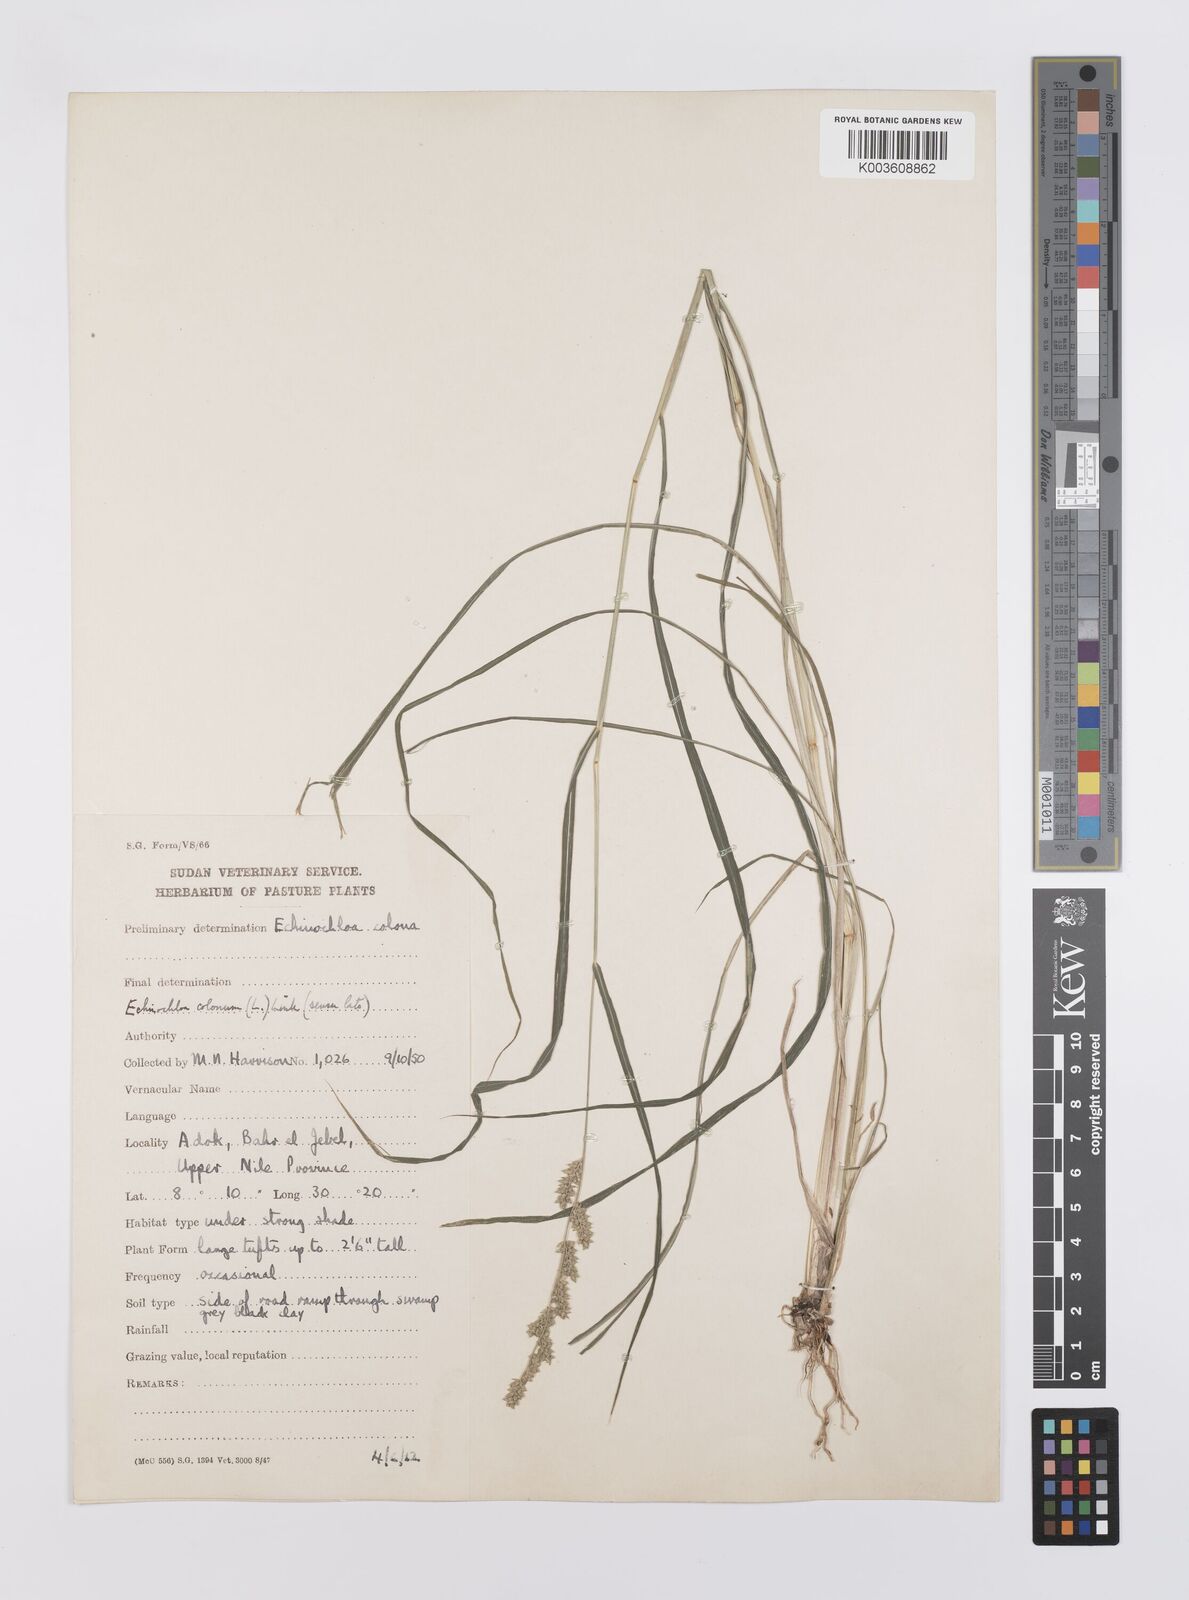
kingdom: Plantae
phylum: Tracheophyta
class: Liliopsida
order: Poales
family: Poaceae
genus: Echinochloa
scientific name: Echinochloa colonum
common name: Jungle rice
